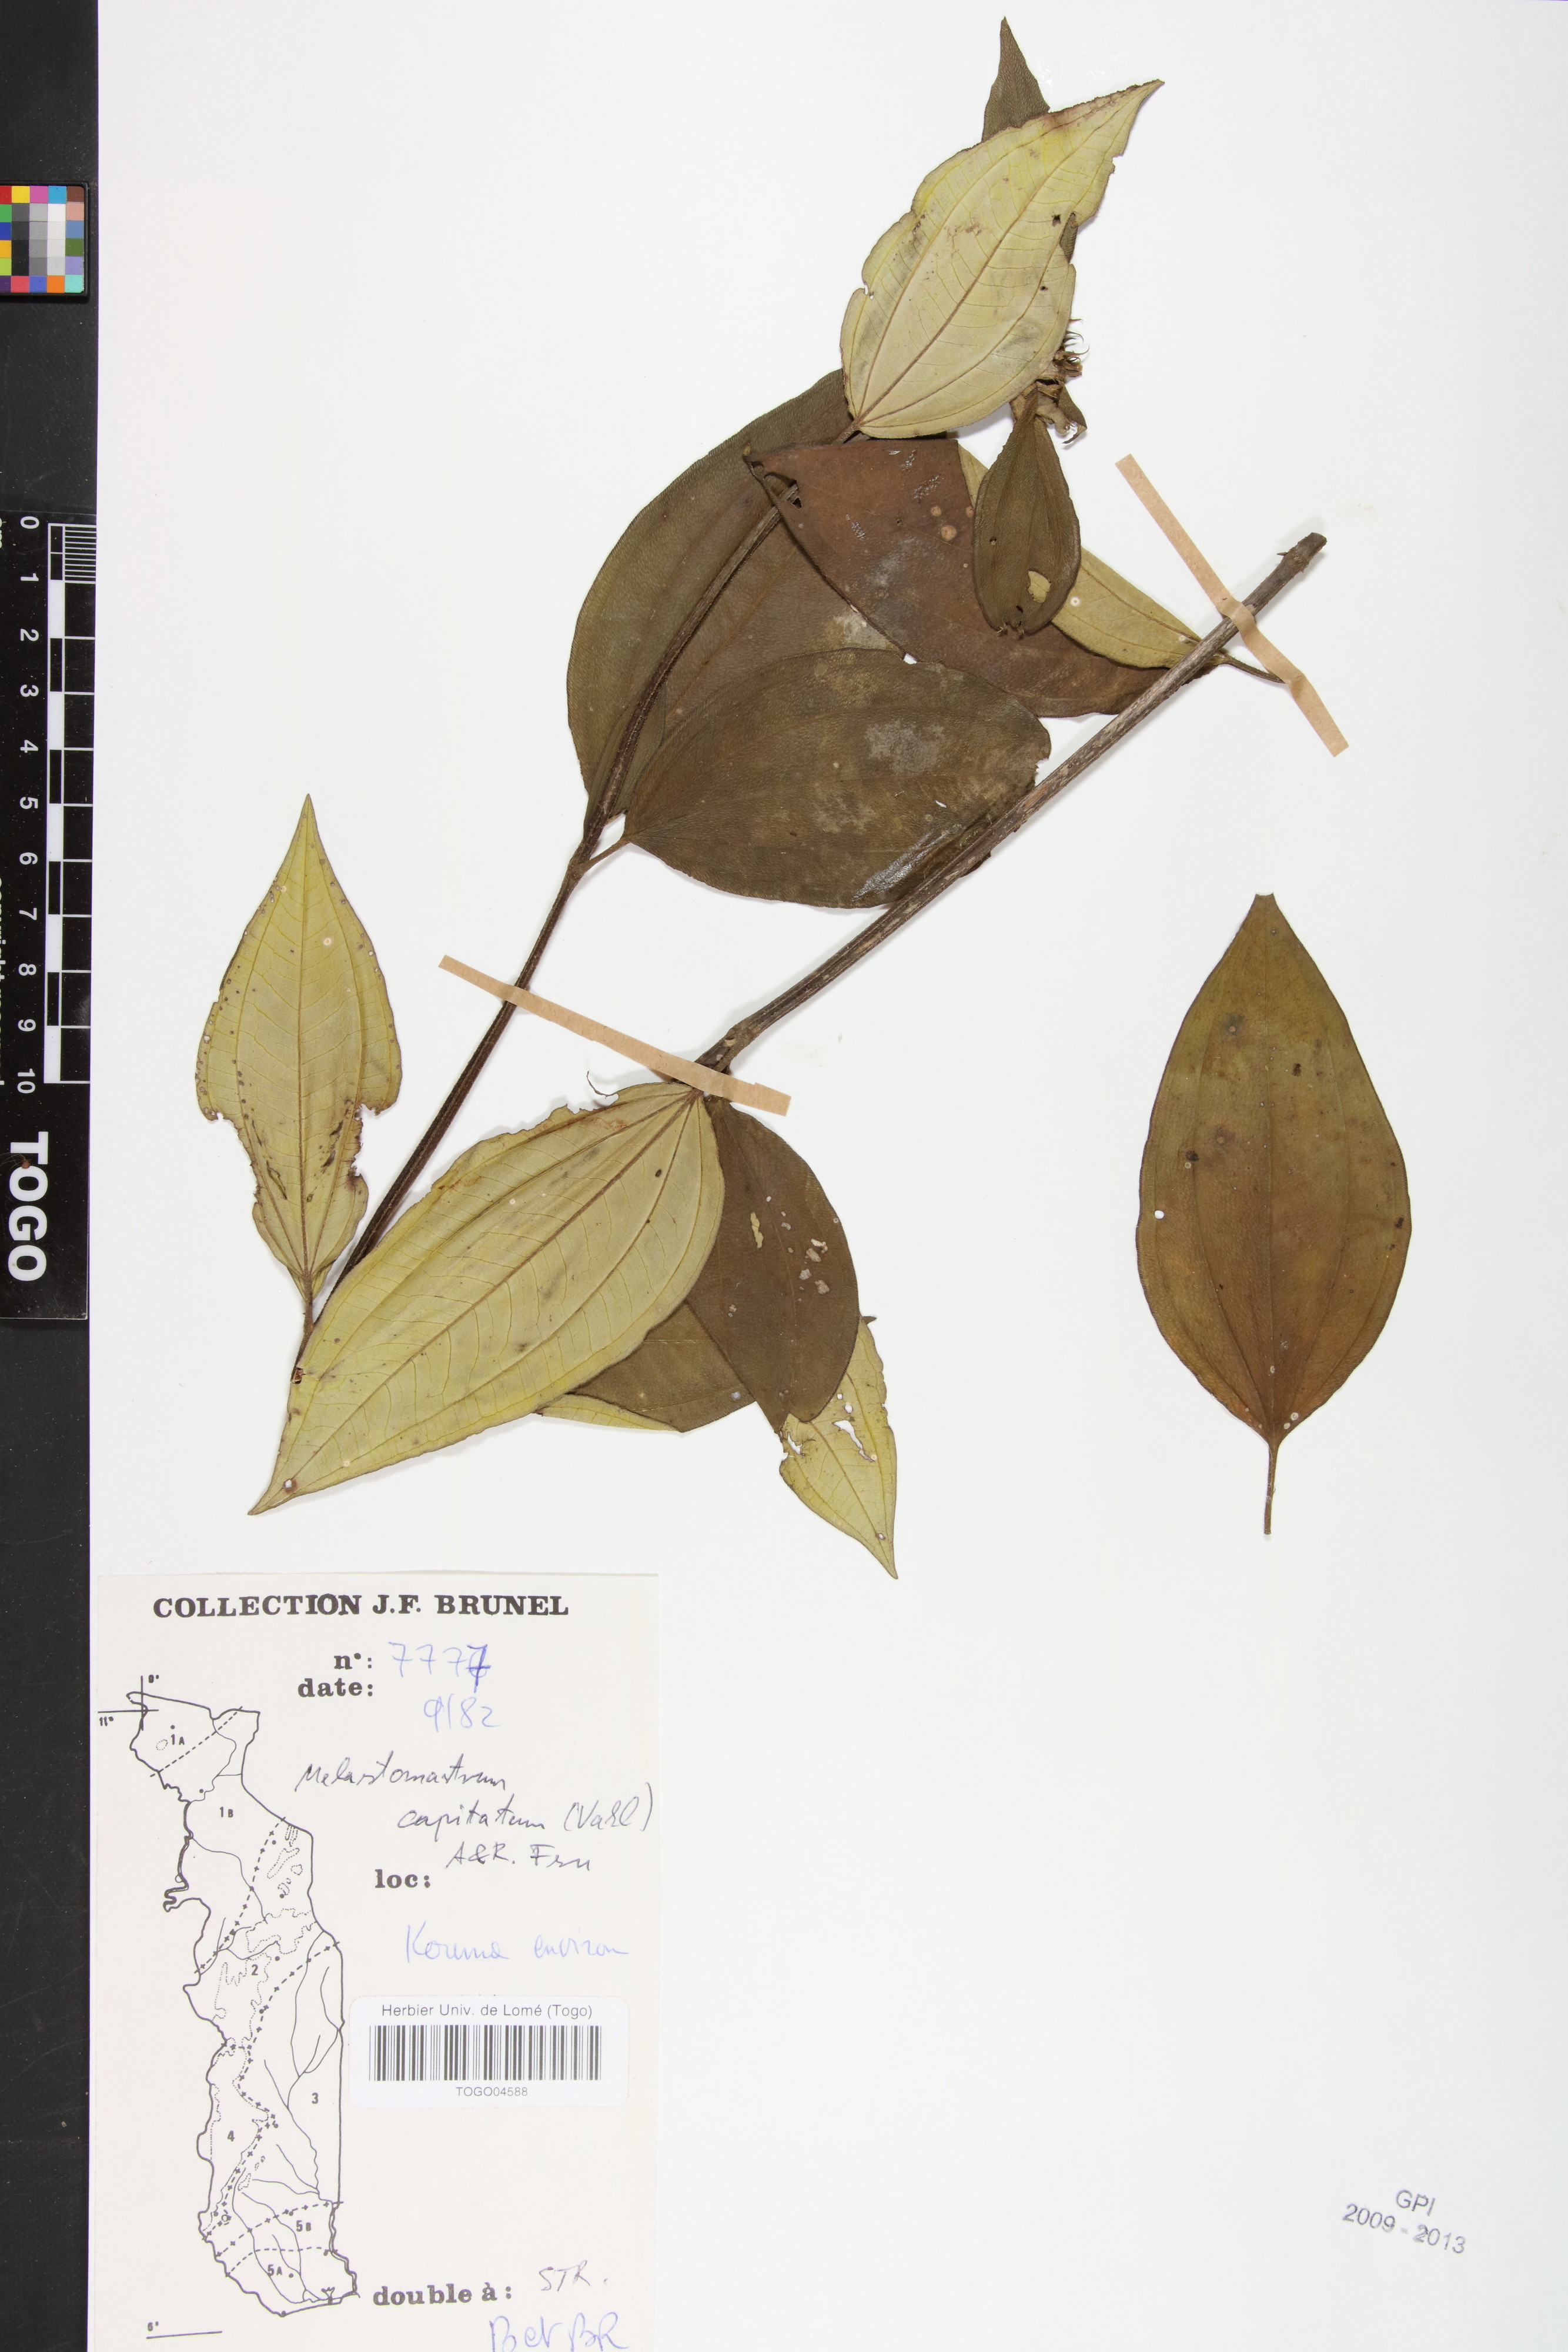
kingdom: Plantae
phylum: Tracheophyta
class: Magnoliopsida
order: Myrtales
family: Melastomataceae
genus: Melastomastrum
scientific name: Melastomastrum capitatum
